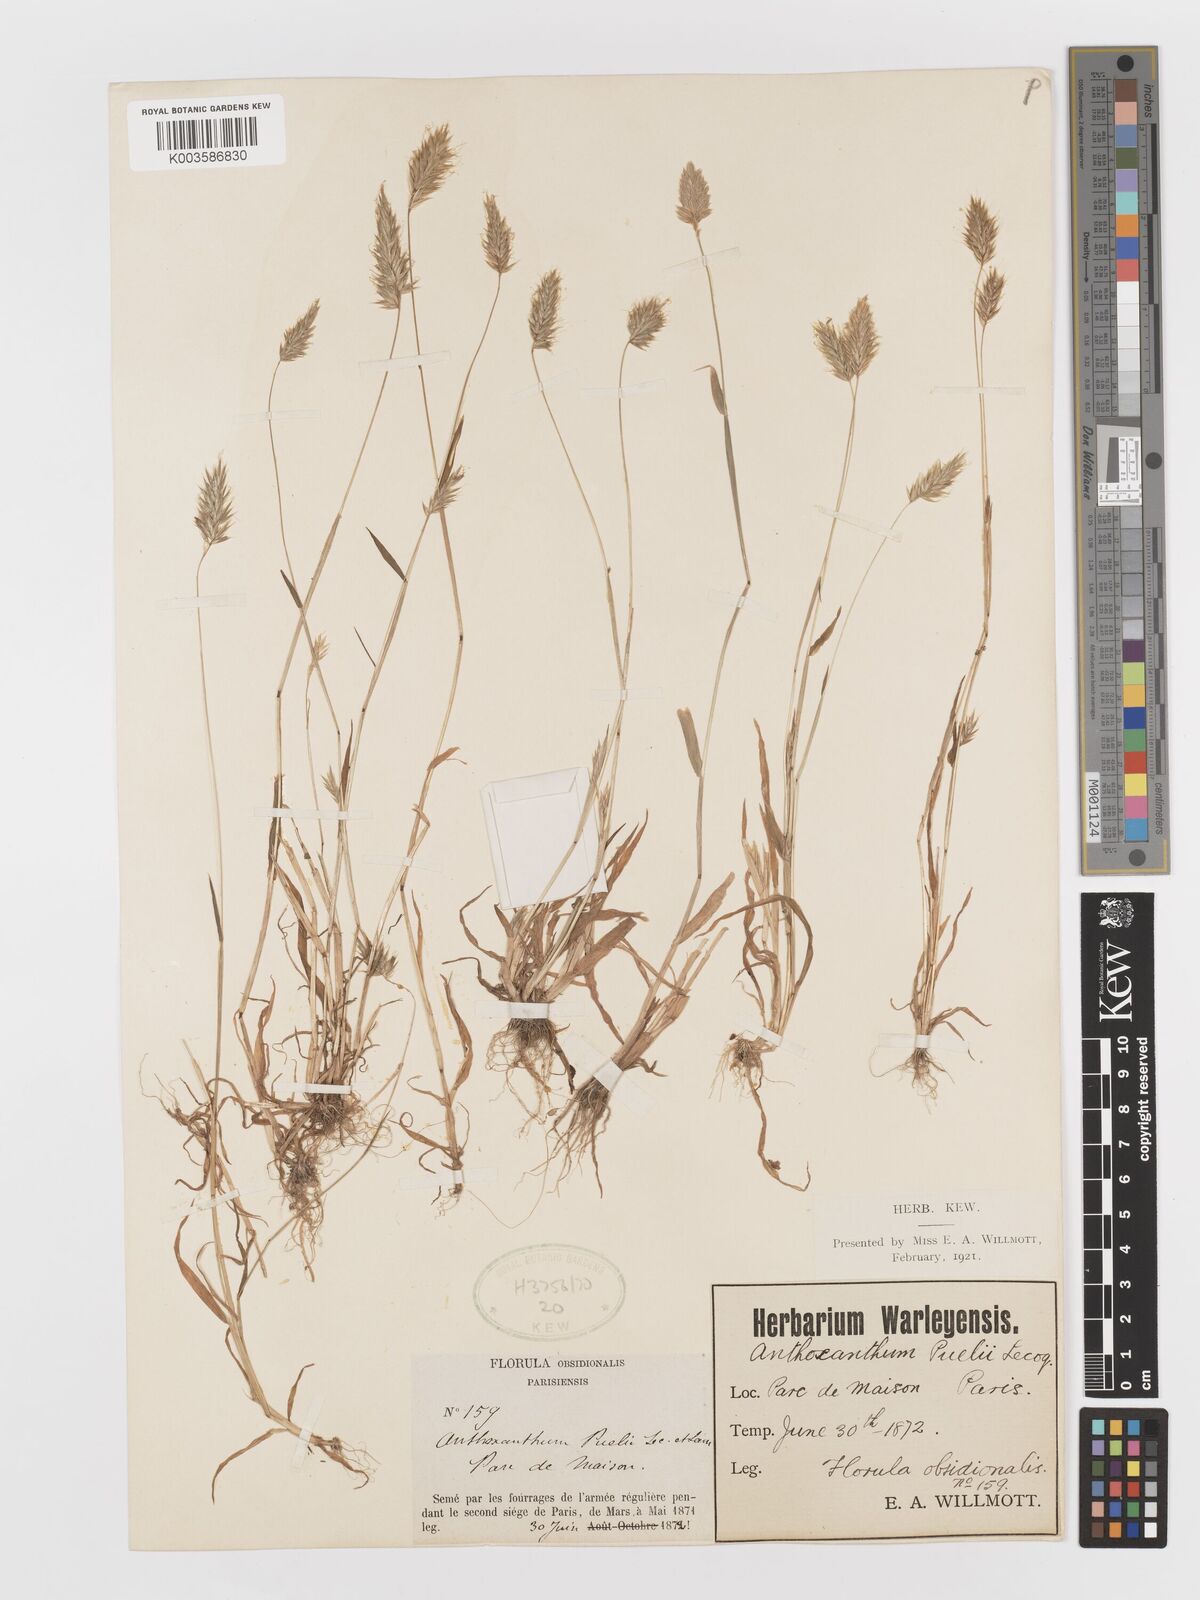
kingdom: Plantae
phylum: Tracheophyta
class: Liliopsida
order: Poales
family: Poaceae
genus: Anthoxanthum
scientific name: Anthoxanthum
